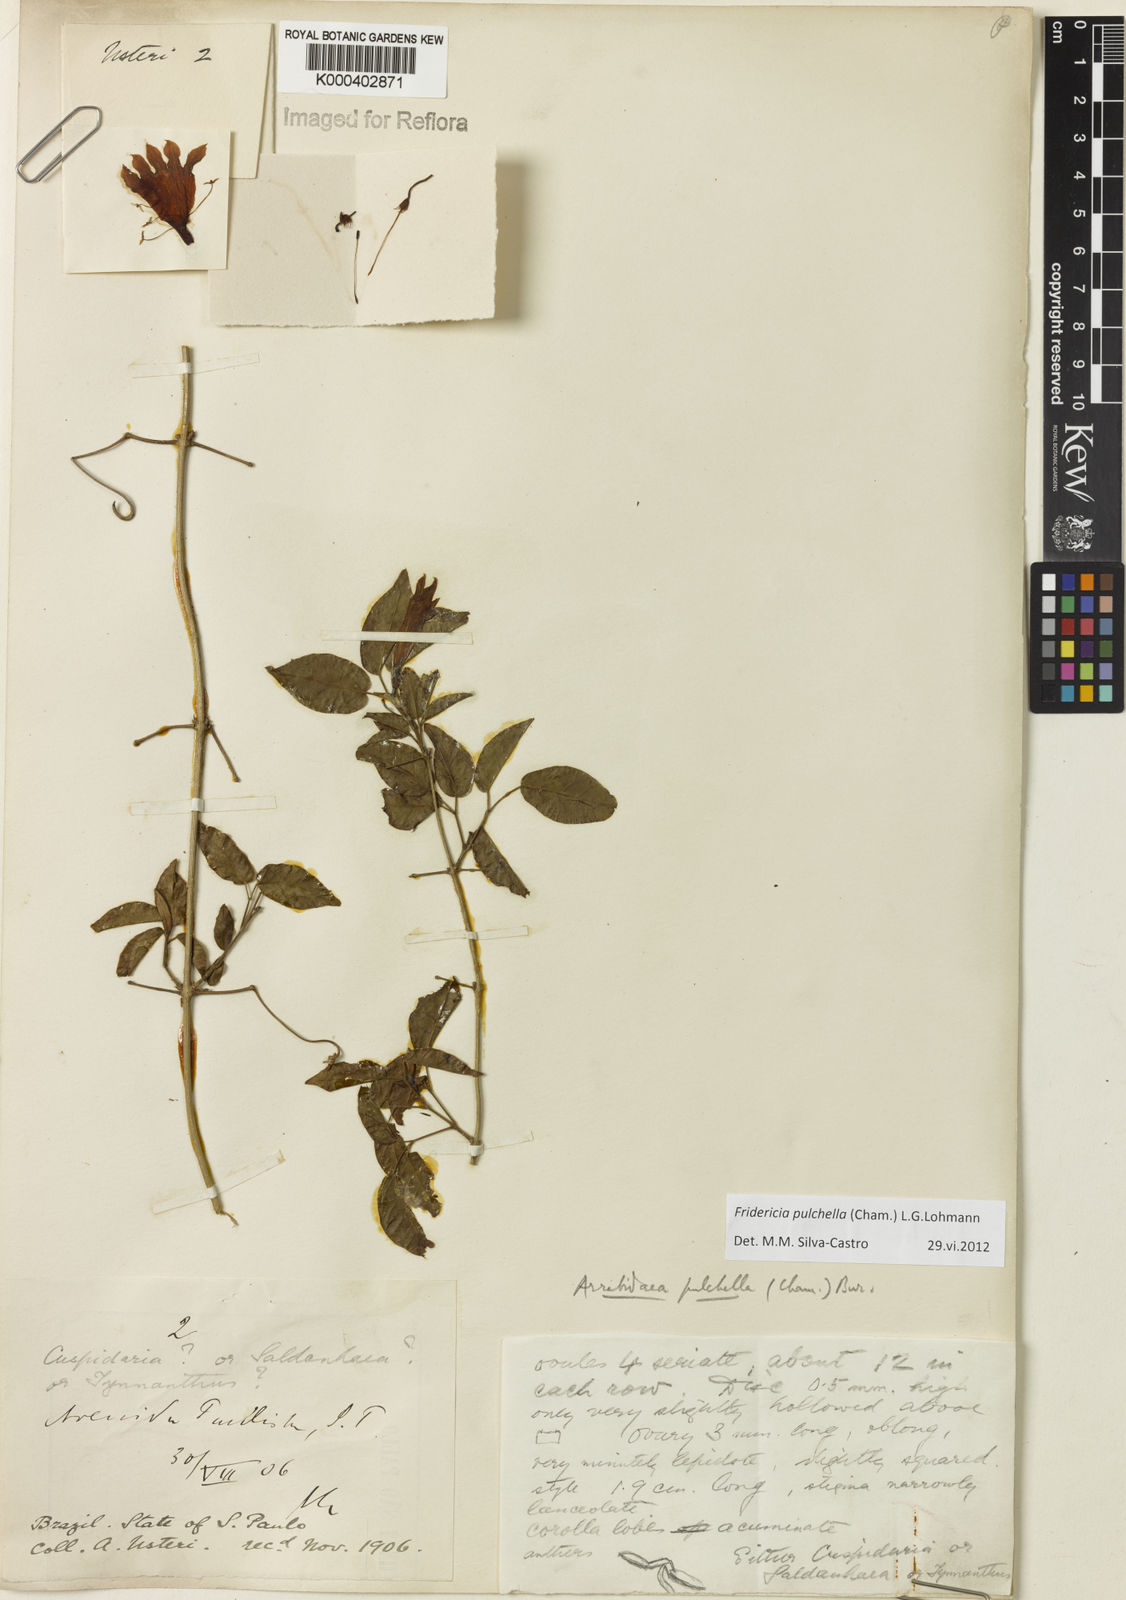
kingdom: Plantae
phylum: Tracheophyta
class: Magnoliopsida
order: Lamiales
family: Bignoniaceae
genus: Fridericia
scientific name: Fridericia
